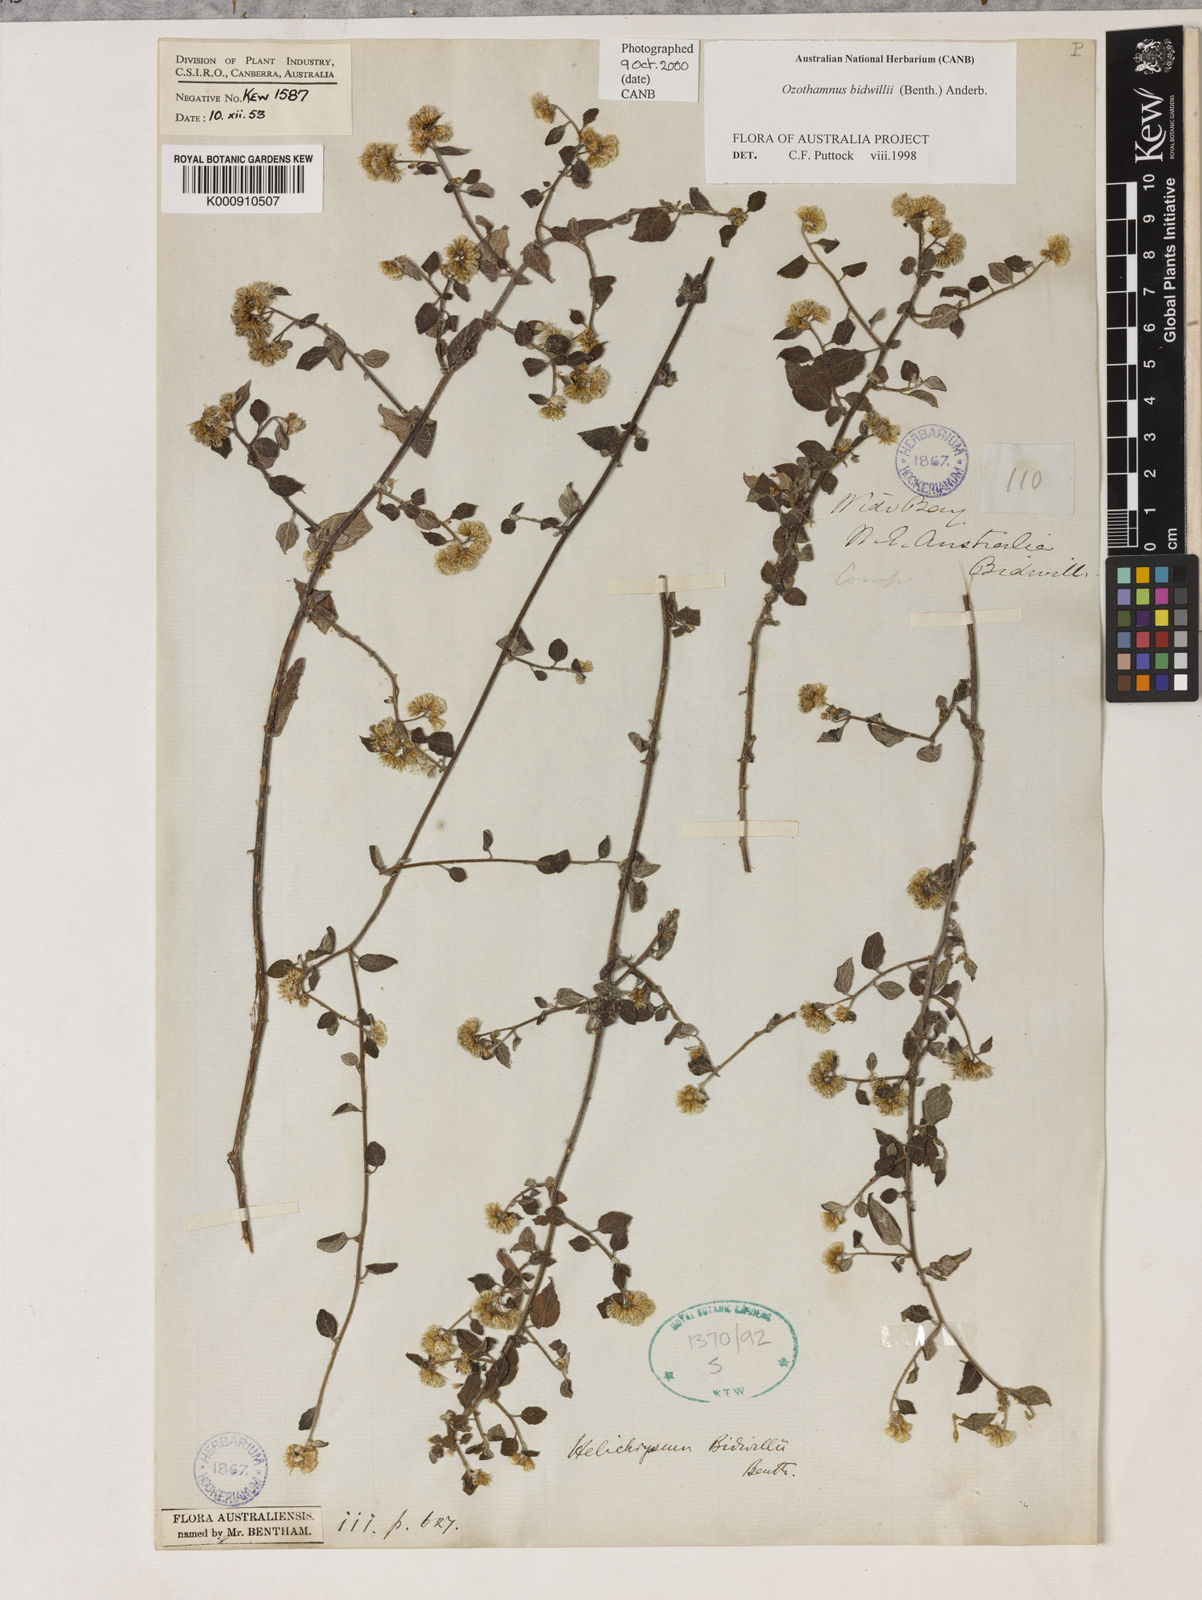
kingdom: Plantae
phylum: Tracheophyta
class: Magnoliopsida
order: Asterales
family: Asteraceae
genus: Ozothamnus
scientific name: Ozothamnus bidwillii
